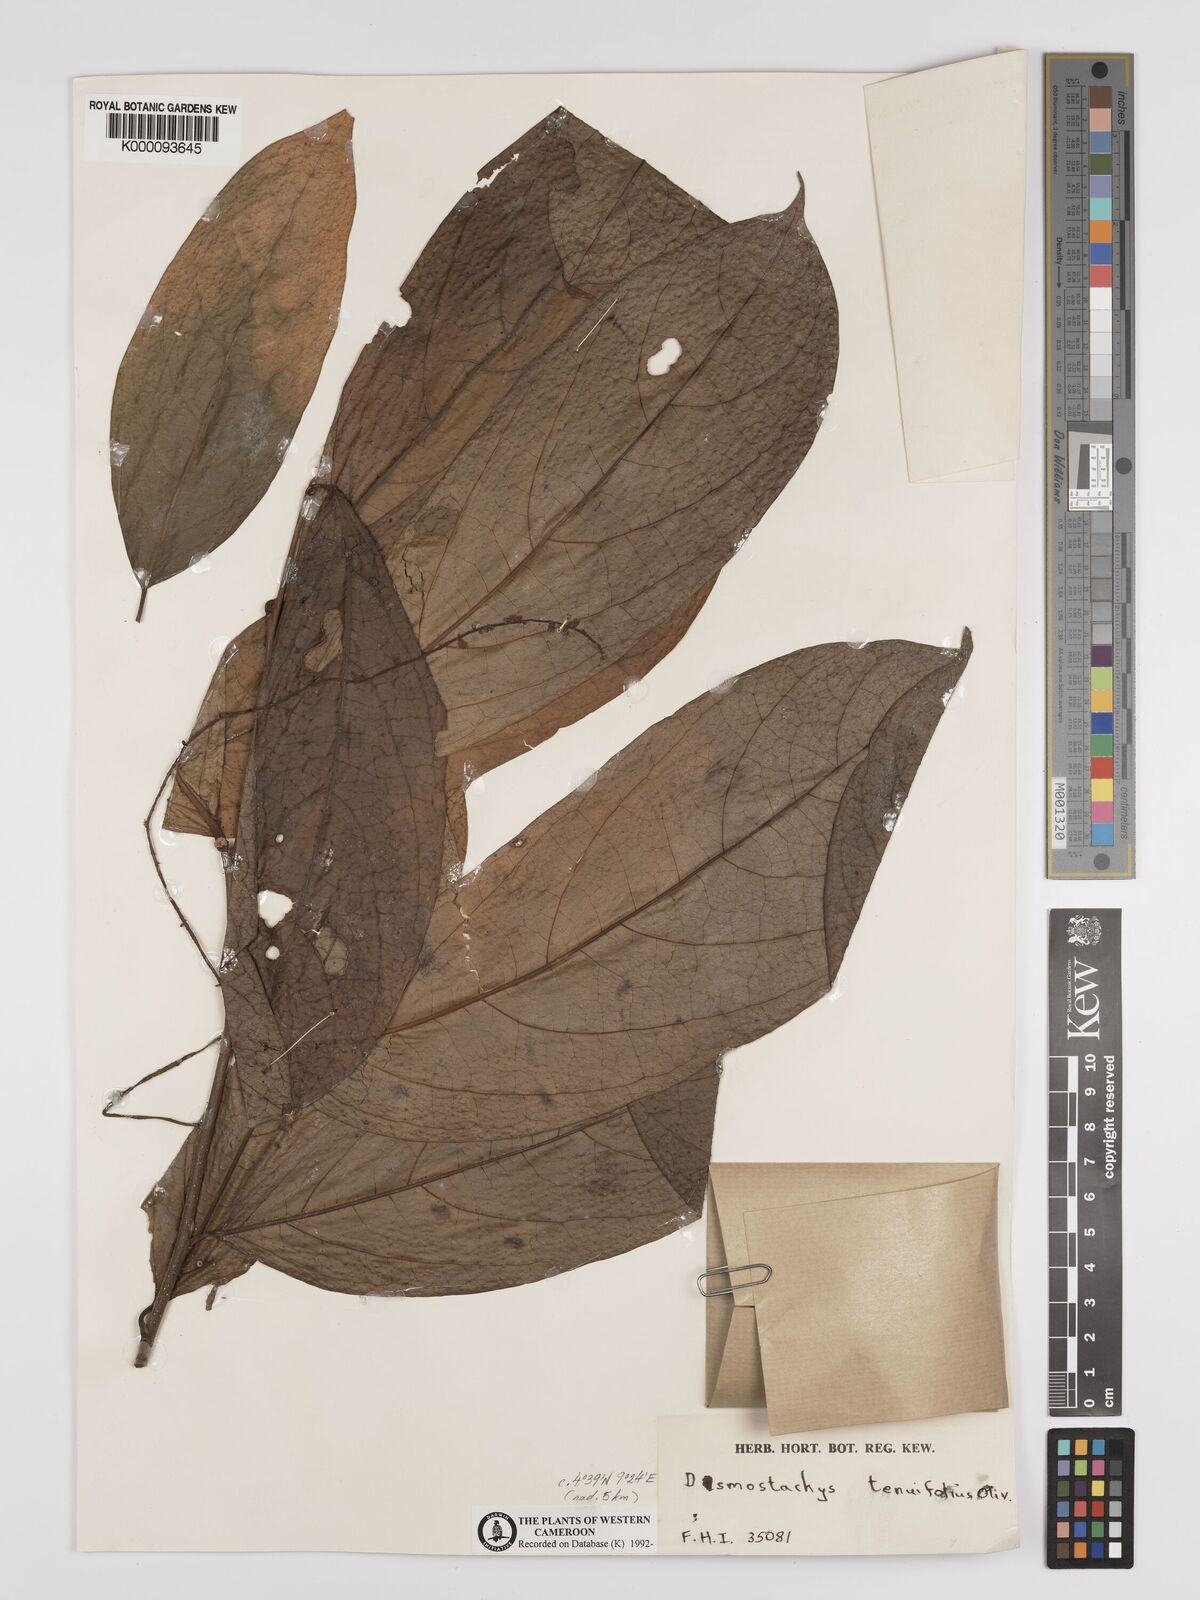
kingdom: Plantae
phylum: Tracheophyta
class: Magnoliopsida
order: Icacinales
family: Icacinaceae
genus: Vadensea
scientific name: Vadensea tenuifolia
